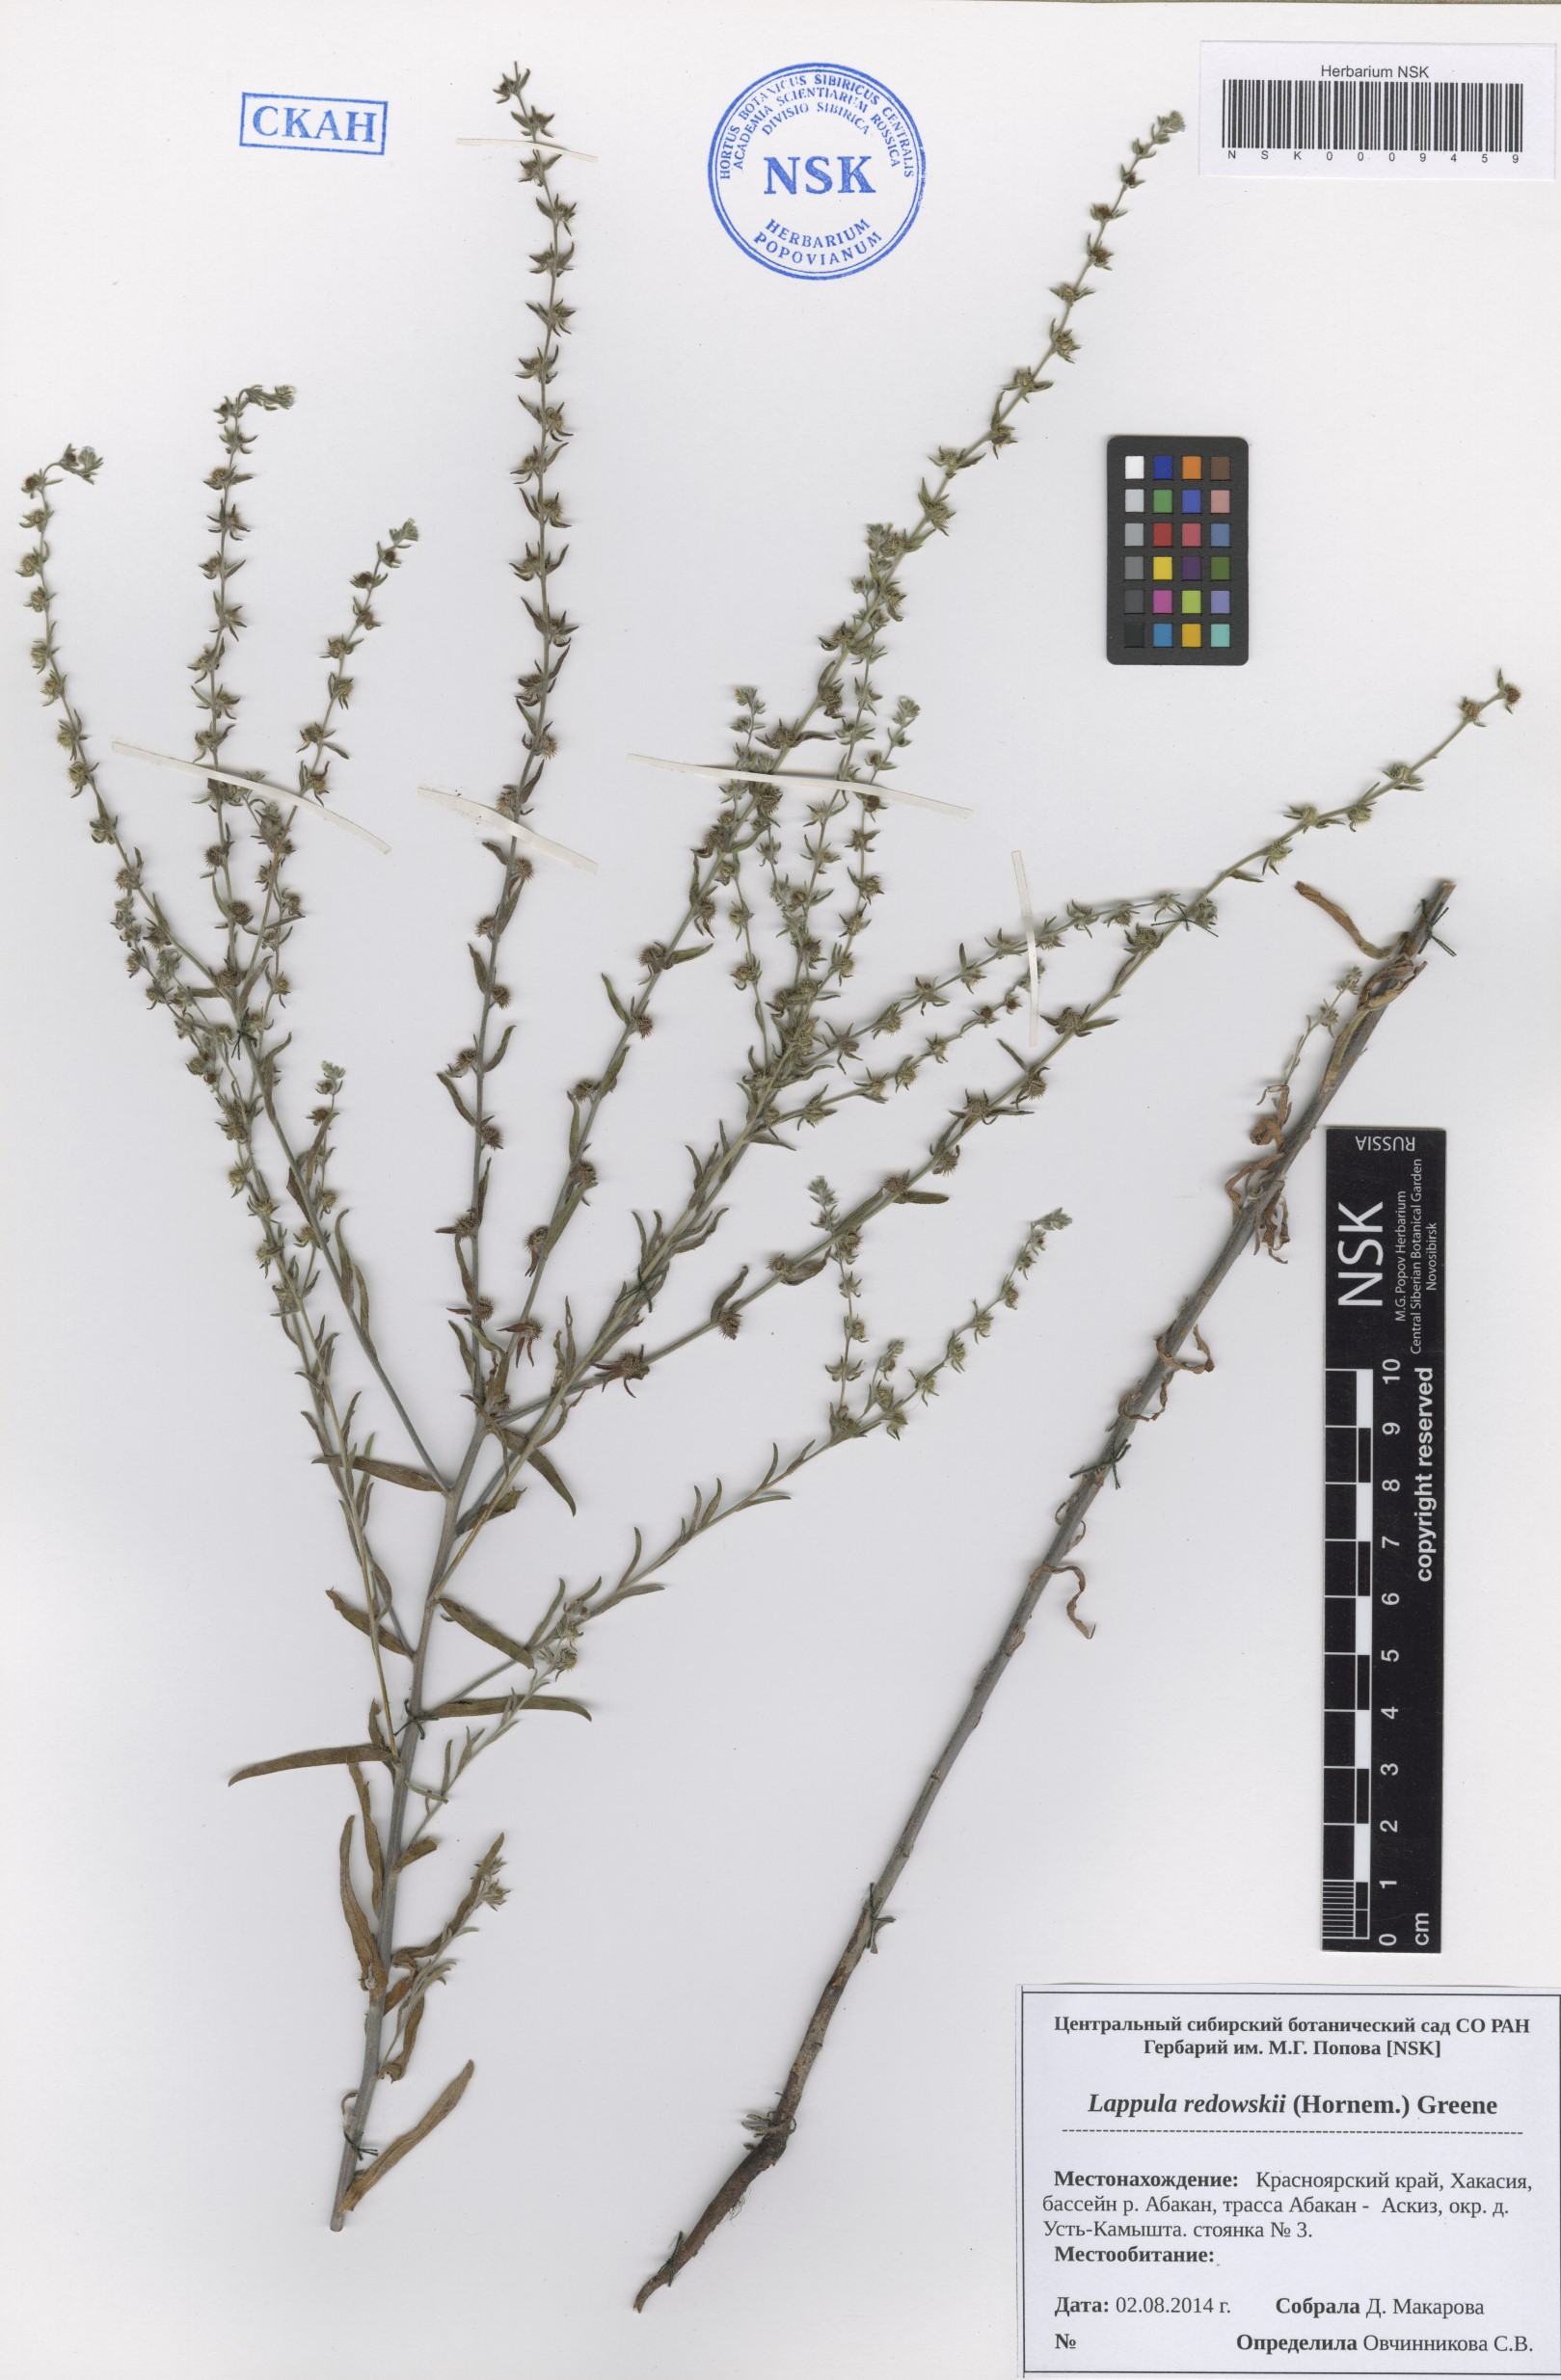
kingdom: Plantae
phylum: Tracheophyta
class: Magnoliopsida
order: Boraginales
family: Boraginaceae
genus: Lappula
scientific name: Lappula redowskii
